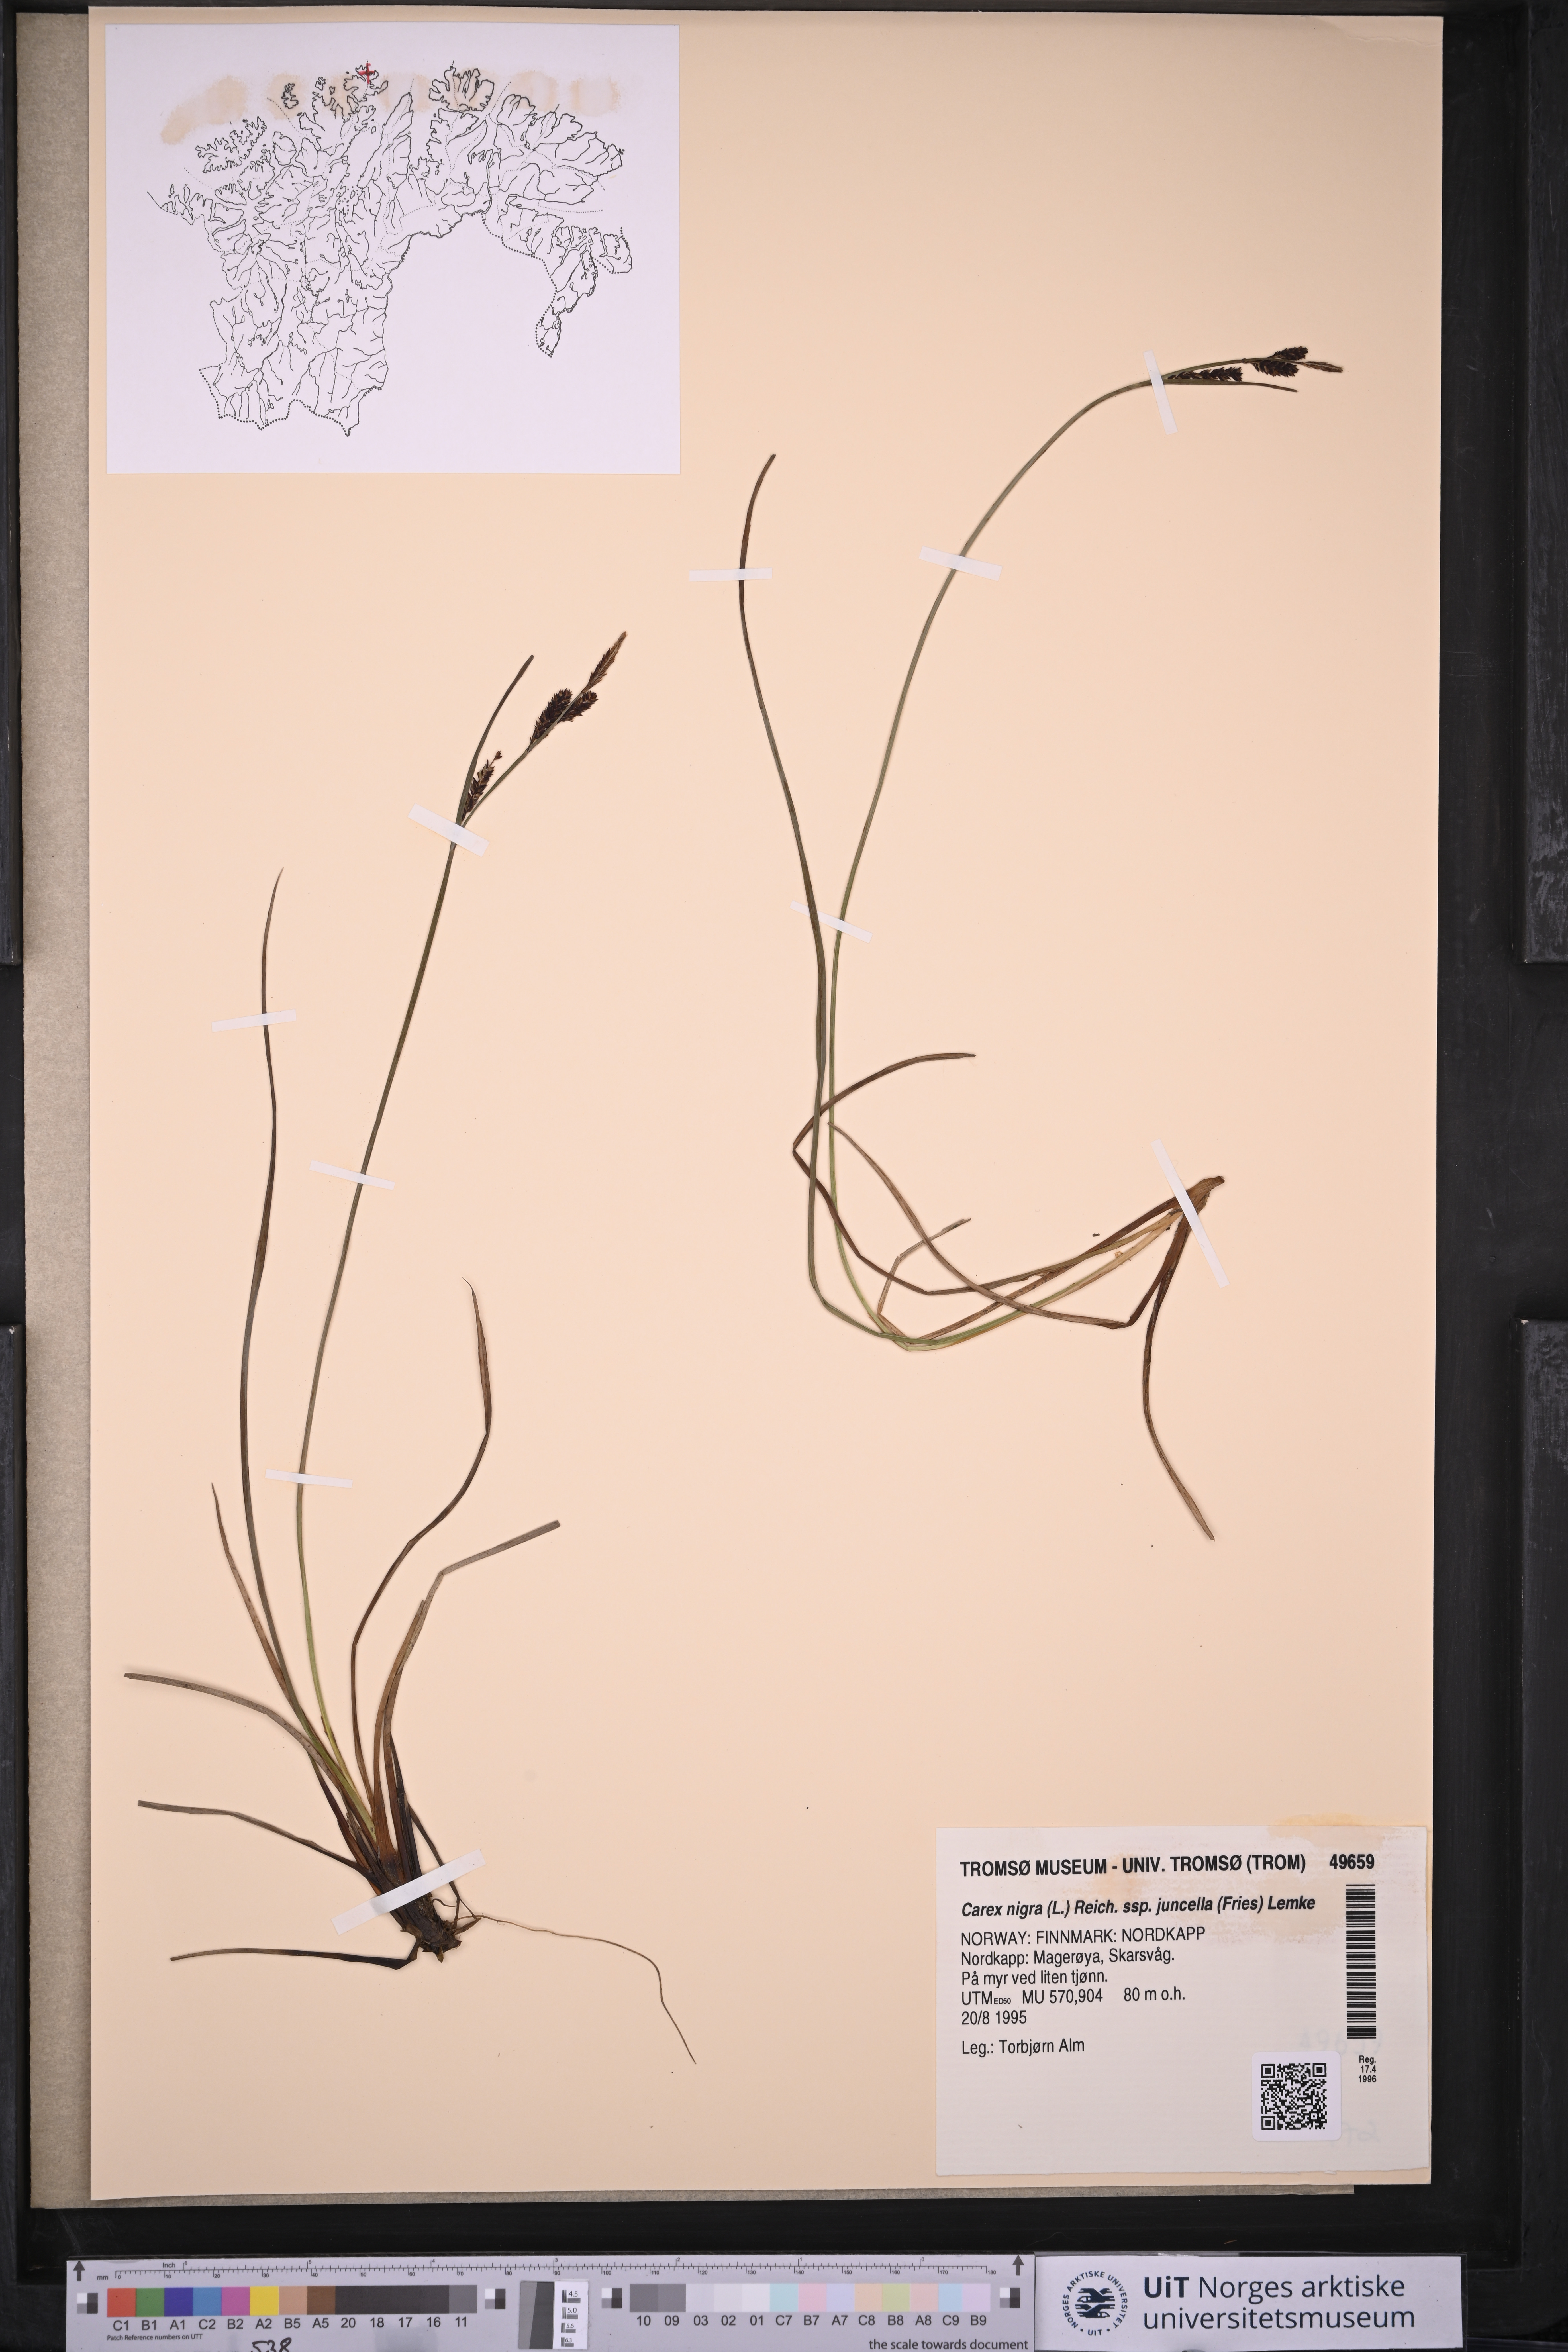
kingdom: Plantae
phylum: Tracheophyta
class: Liliopsida
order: Poales
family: Cyperaceae
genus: Carex
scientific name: Carex nigra
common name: Common sedge
